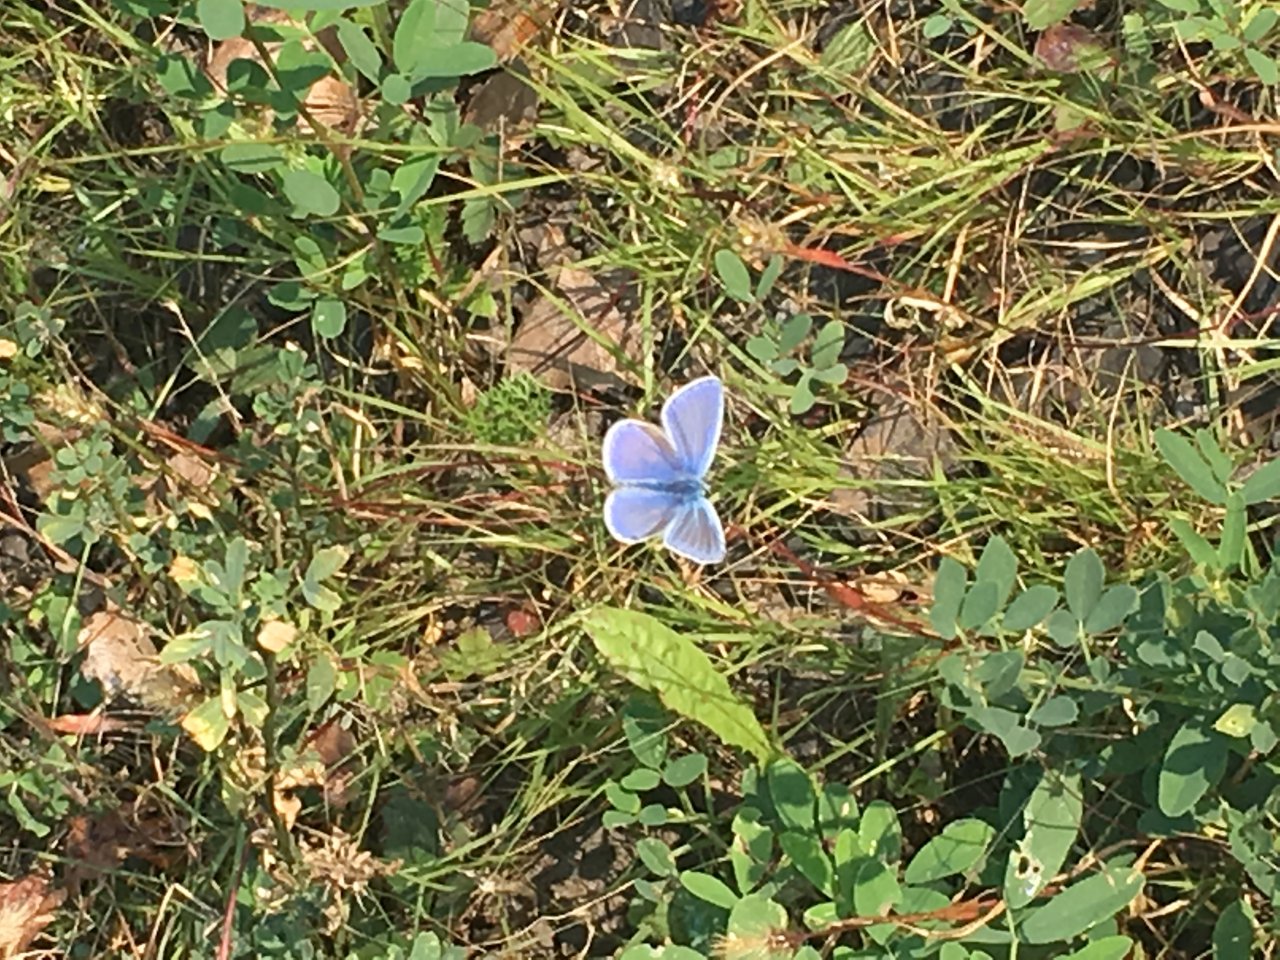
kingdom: Animalia
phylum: Arthropoda
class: Insecta
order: Lepidoptera
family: Lycaenidae
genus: Polyommatus
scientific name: Polyommatus icarus
